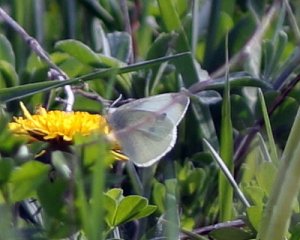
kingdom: Animalia
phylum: Arthropoda
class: Insecta
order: Lepidoptera
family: Pieridae
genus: Pieris
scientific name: Pieris rapae
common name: Cabbage White
